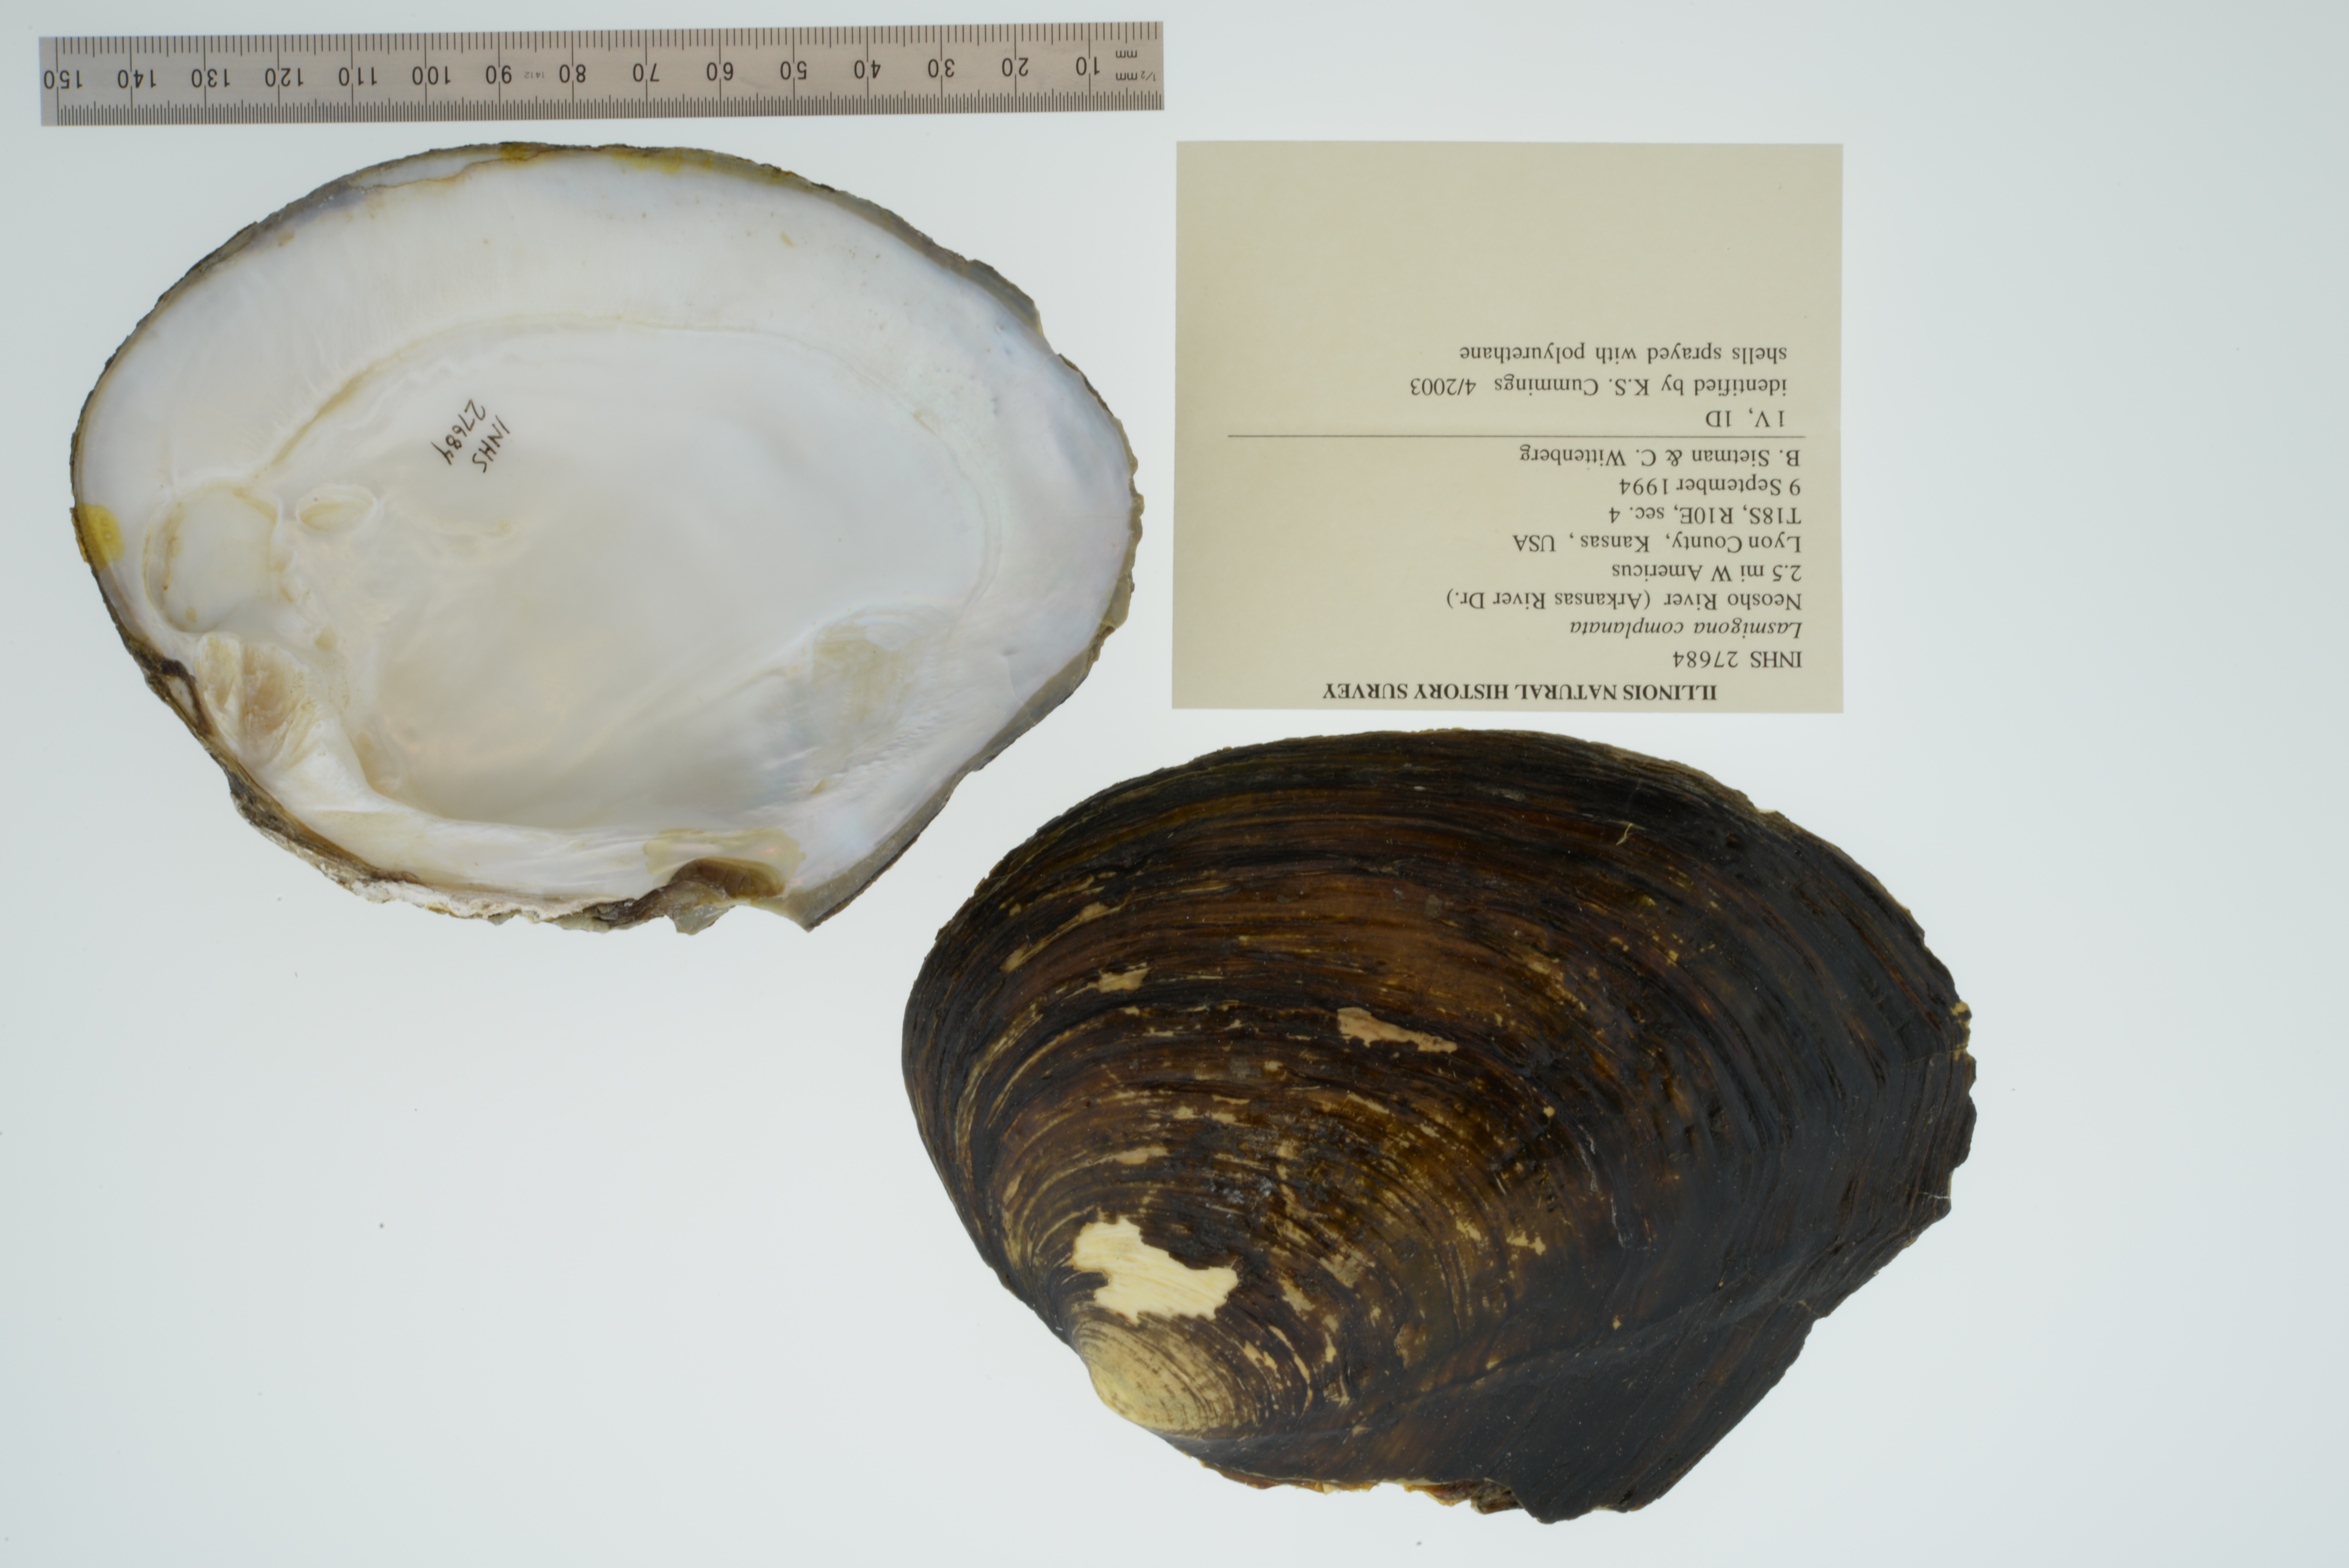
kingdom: Animalia
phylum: Mollusca
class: Bivalvia
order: Unionida
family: Unionidae
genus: Lasmigona
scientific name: Lasmigona complanata
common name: White heelsplitter
